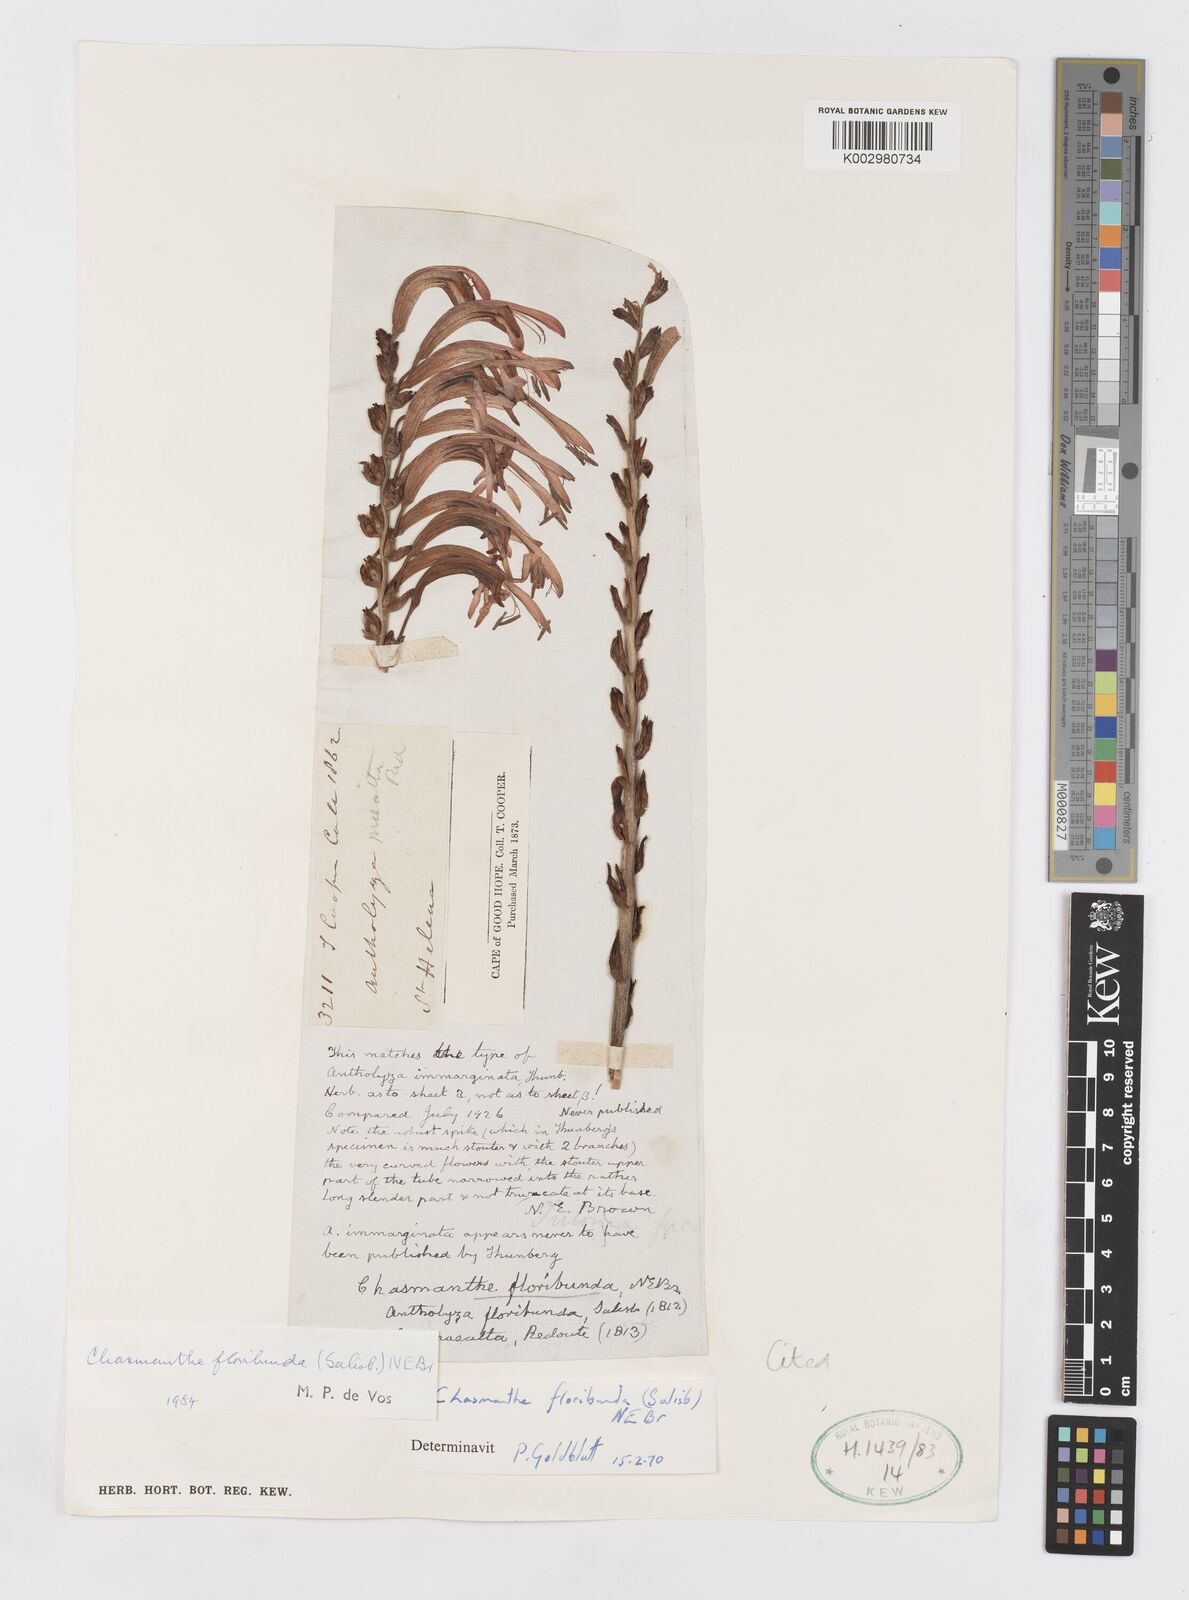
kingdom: Plantae
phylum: Tracheophyta
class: Liliopsida
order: Asparagales
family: Iridaceae
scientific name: Iridaceae
